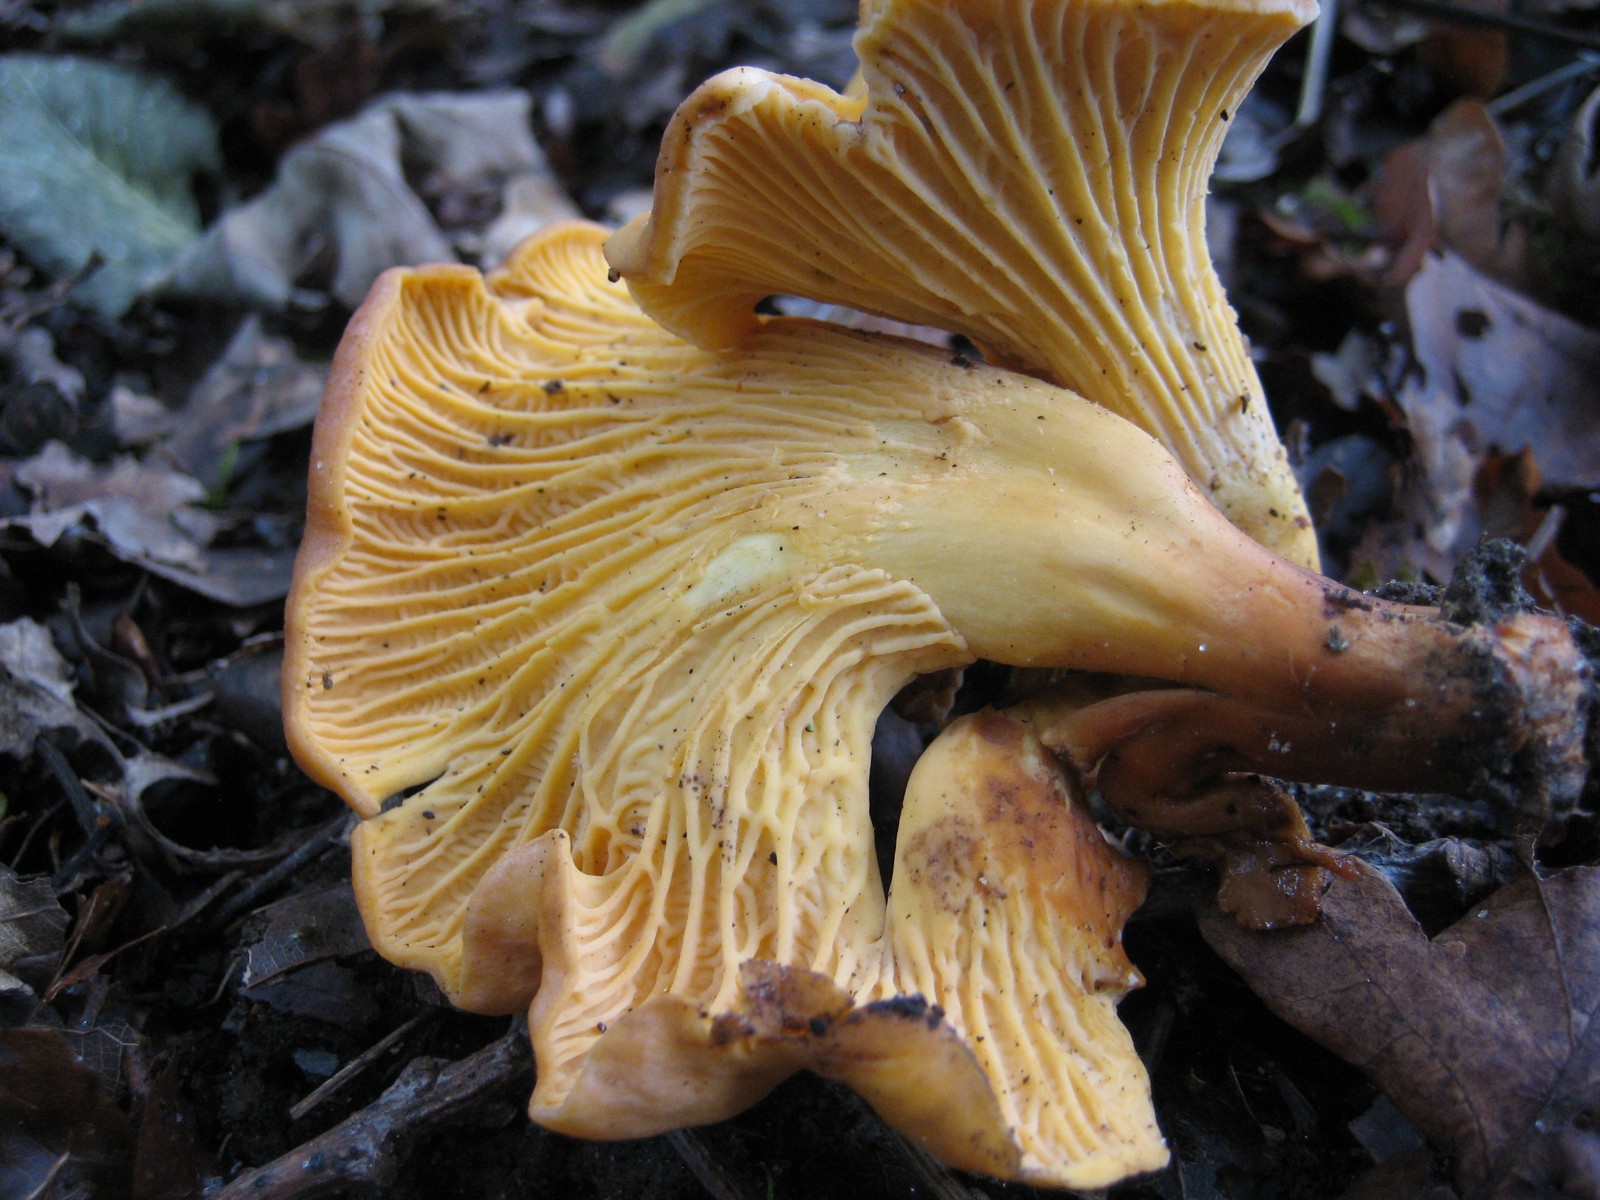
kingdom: Fungi
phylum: Basidiomycota
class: Agaricomycetes
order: Cantharellales
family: Hydnaceae
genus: Cantharellus
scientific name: Cantharellus amethysteus
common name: ametyst-kantarel
